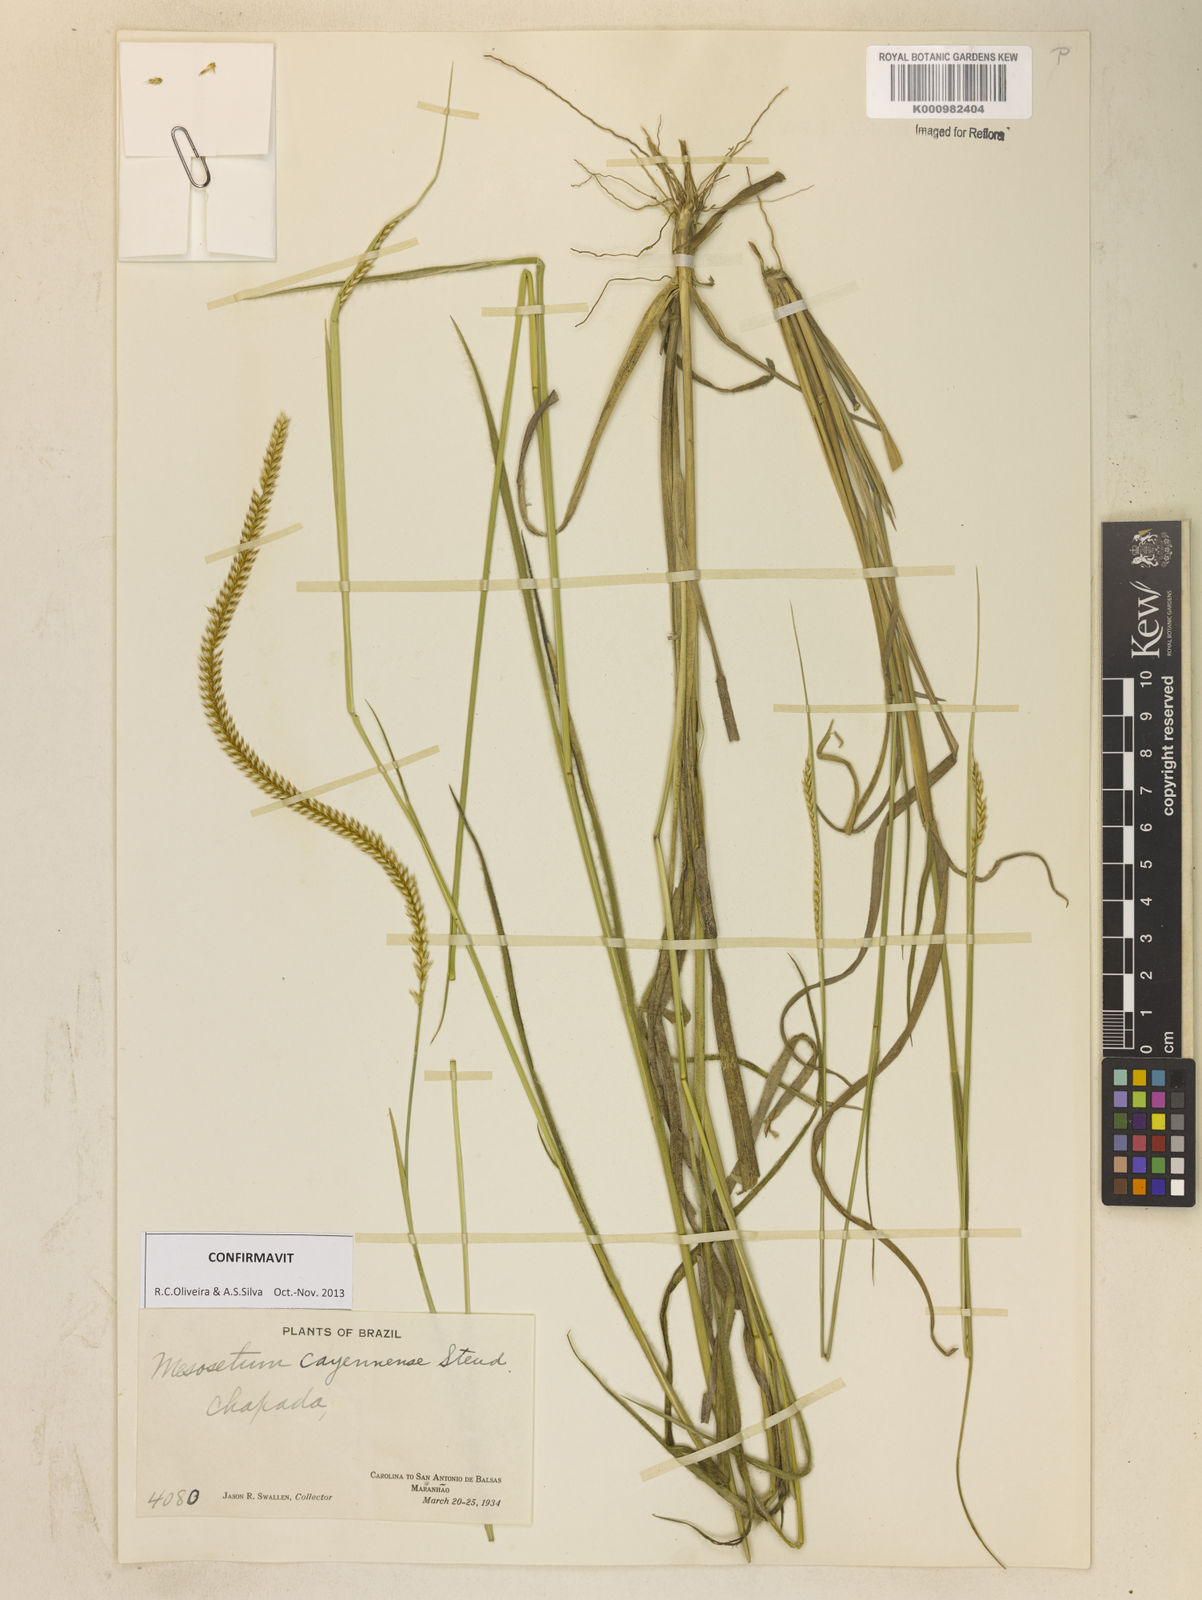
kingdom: Plantae
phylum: Tracheophyta
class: Liliopsida
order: Poales
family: Poaceae
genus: Mesosetum
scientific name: Mesosetum cayennense
